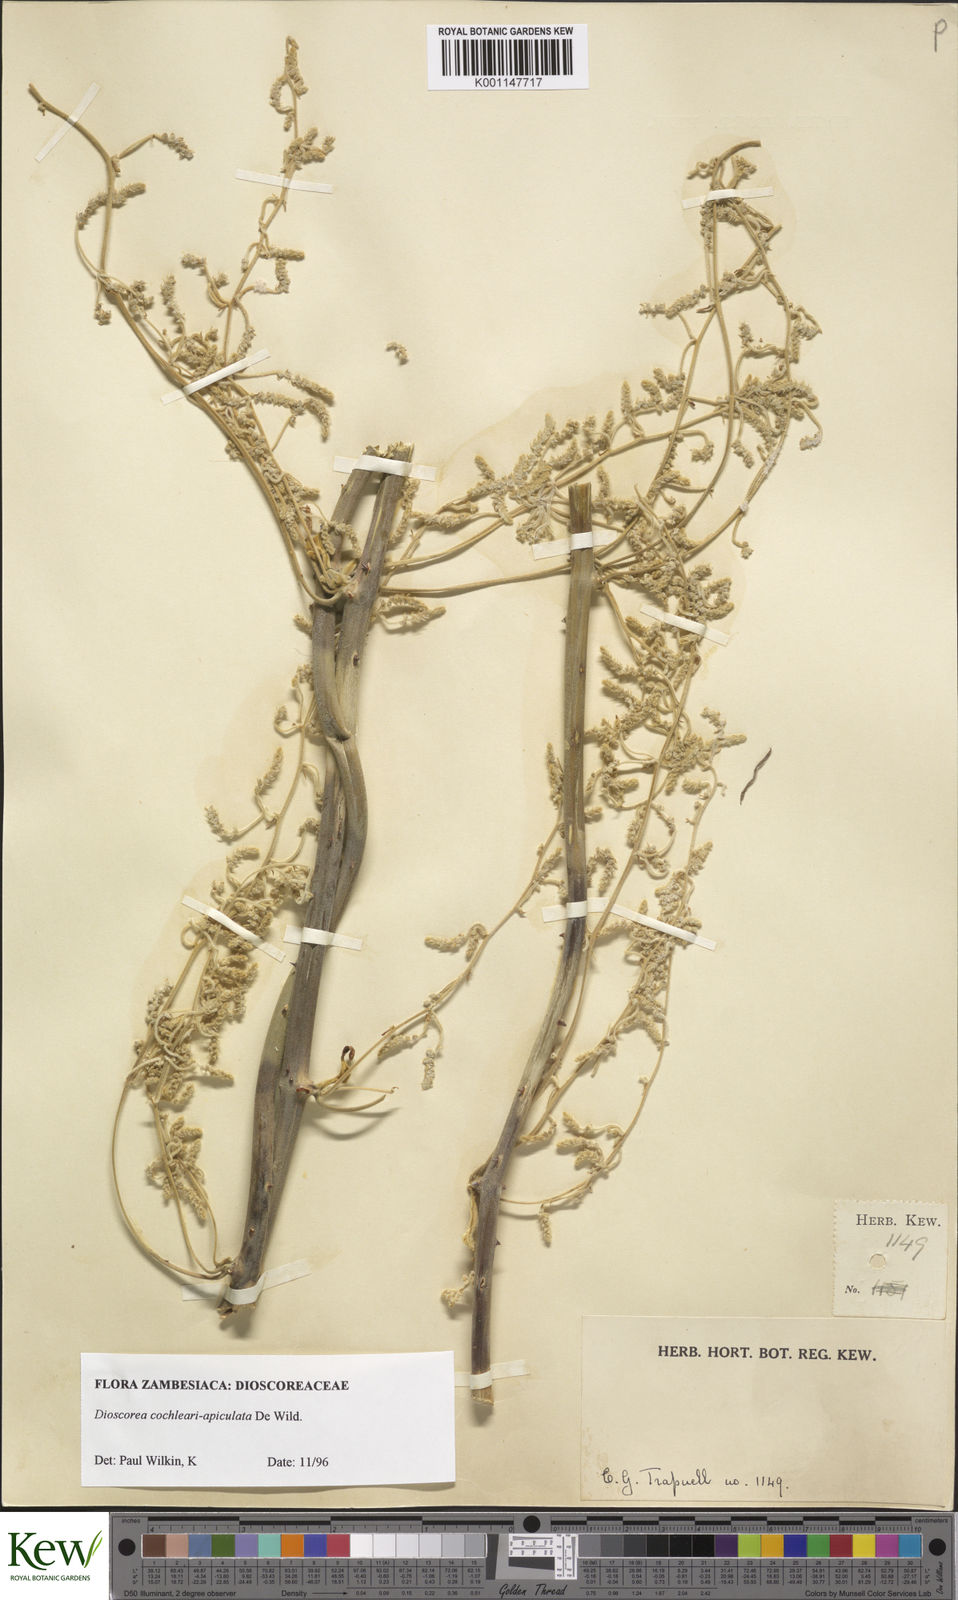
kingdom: Plantae
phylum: Tracheophyta
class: Liliopsida
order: Dioscoreales
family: Dioscoreaceae
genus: Dioscorea
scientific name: Dioscorea cochleariapiculata
